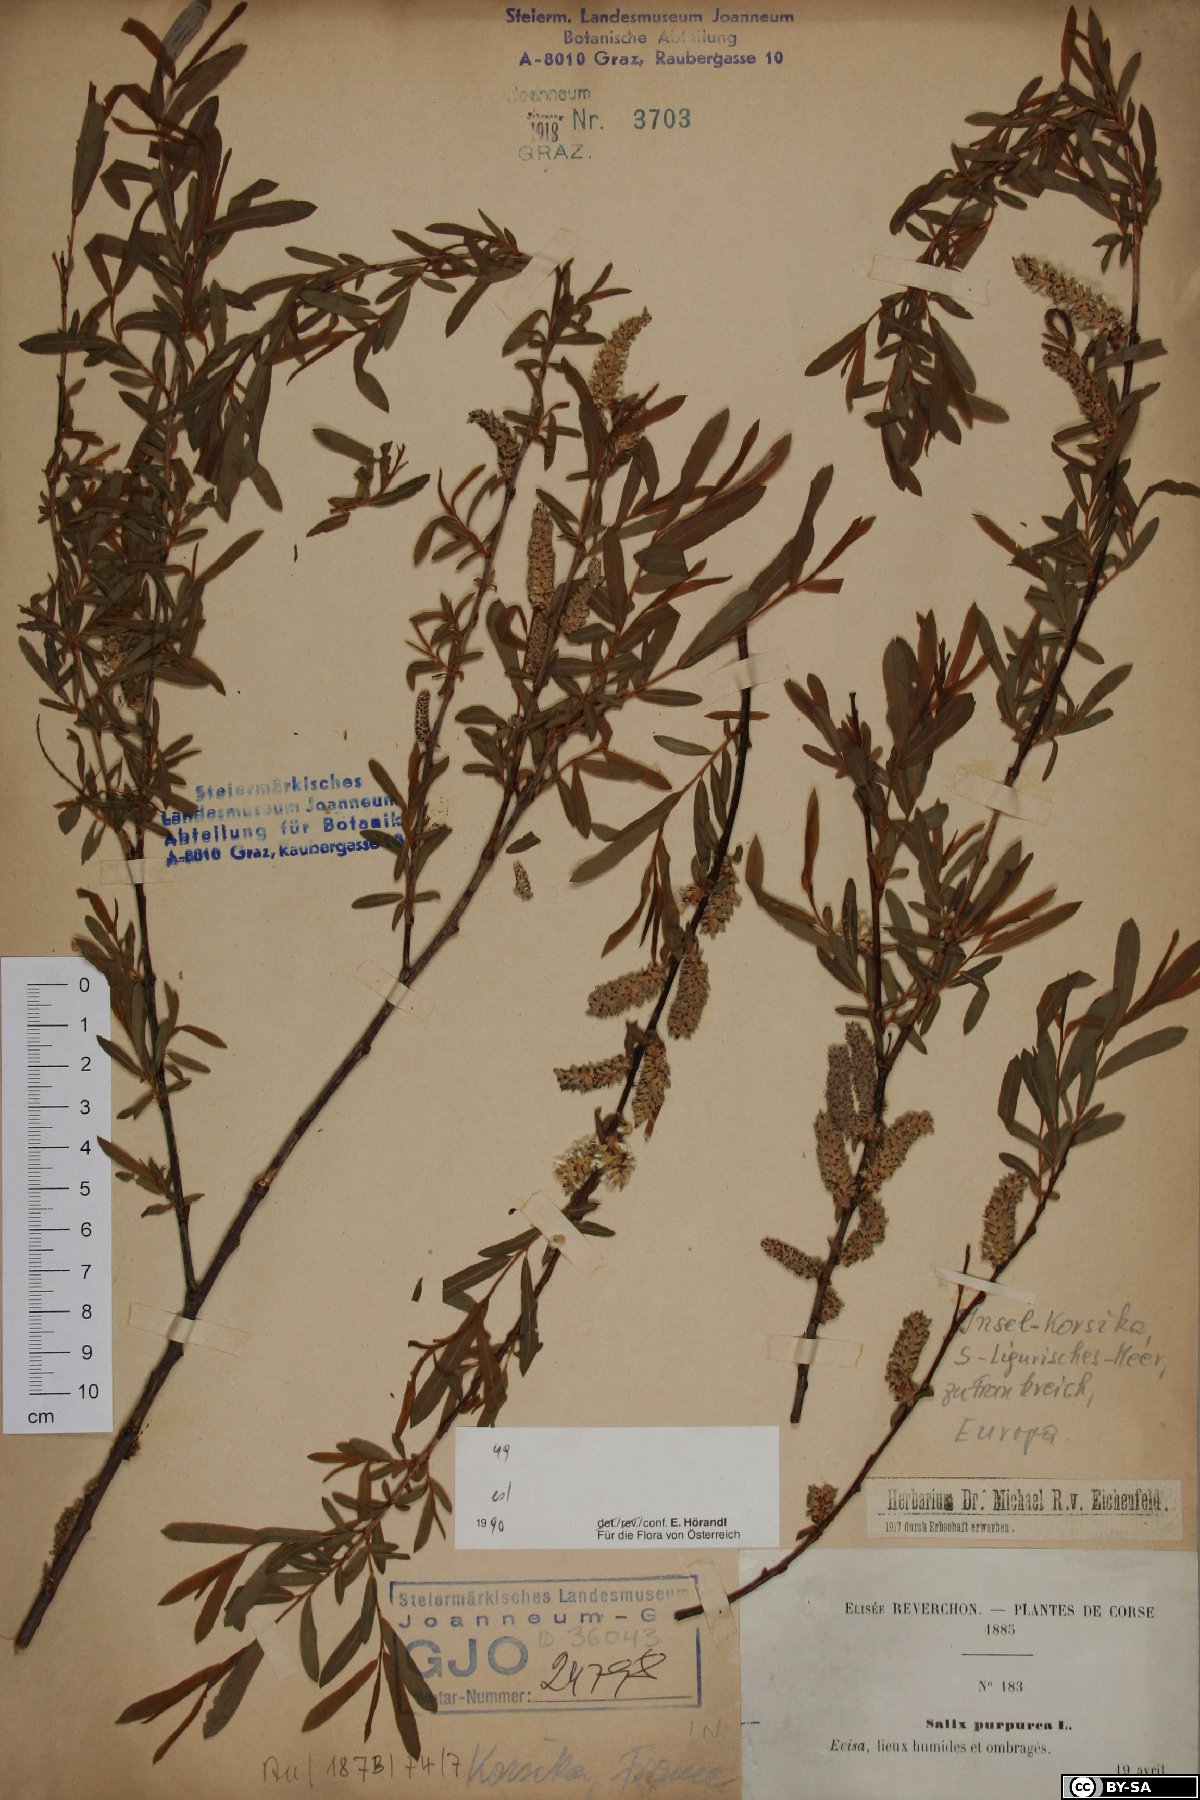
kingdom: Plantae
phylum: Tracheophyta
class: Magnoliopsida
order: Malpighiales
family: Salicaceae
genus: Salix
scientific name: Salix purpurea
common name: Purple willow
